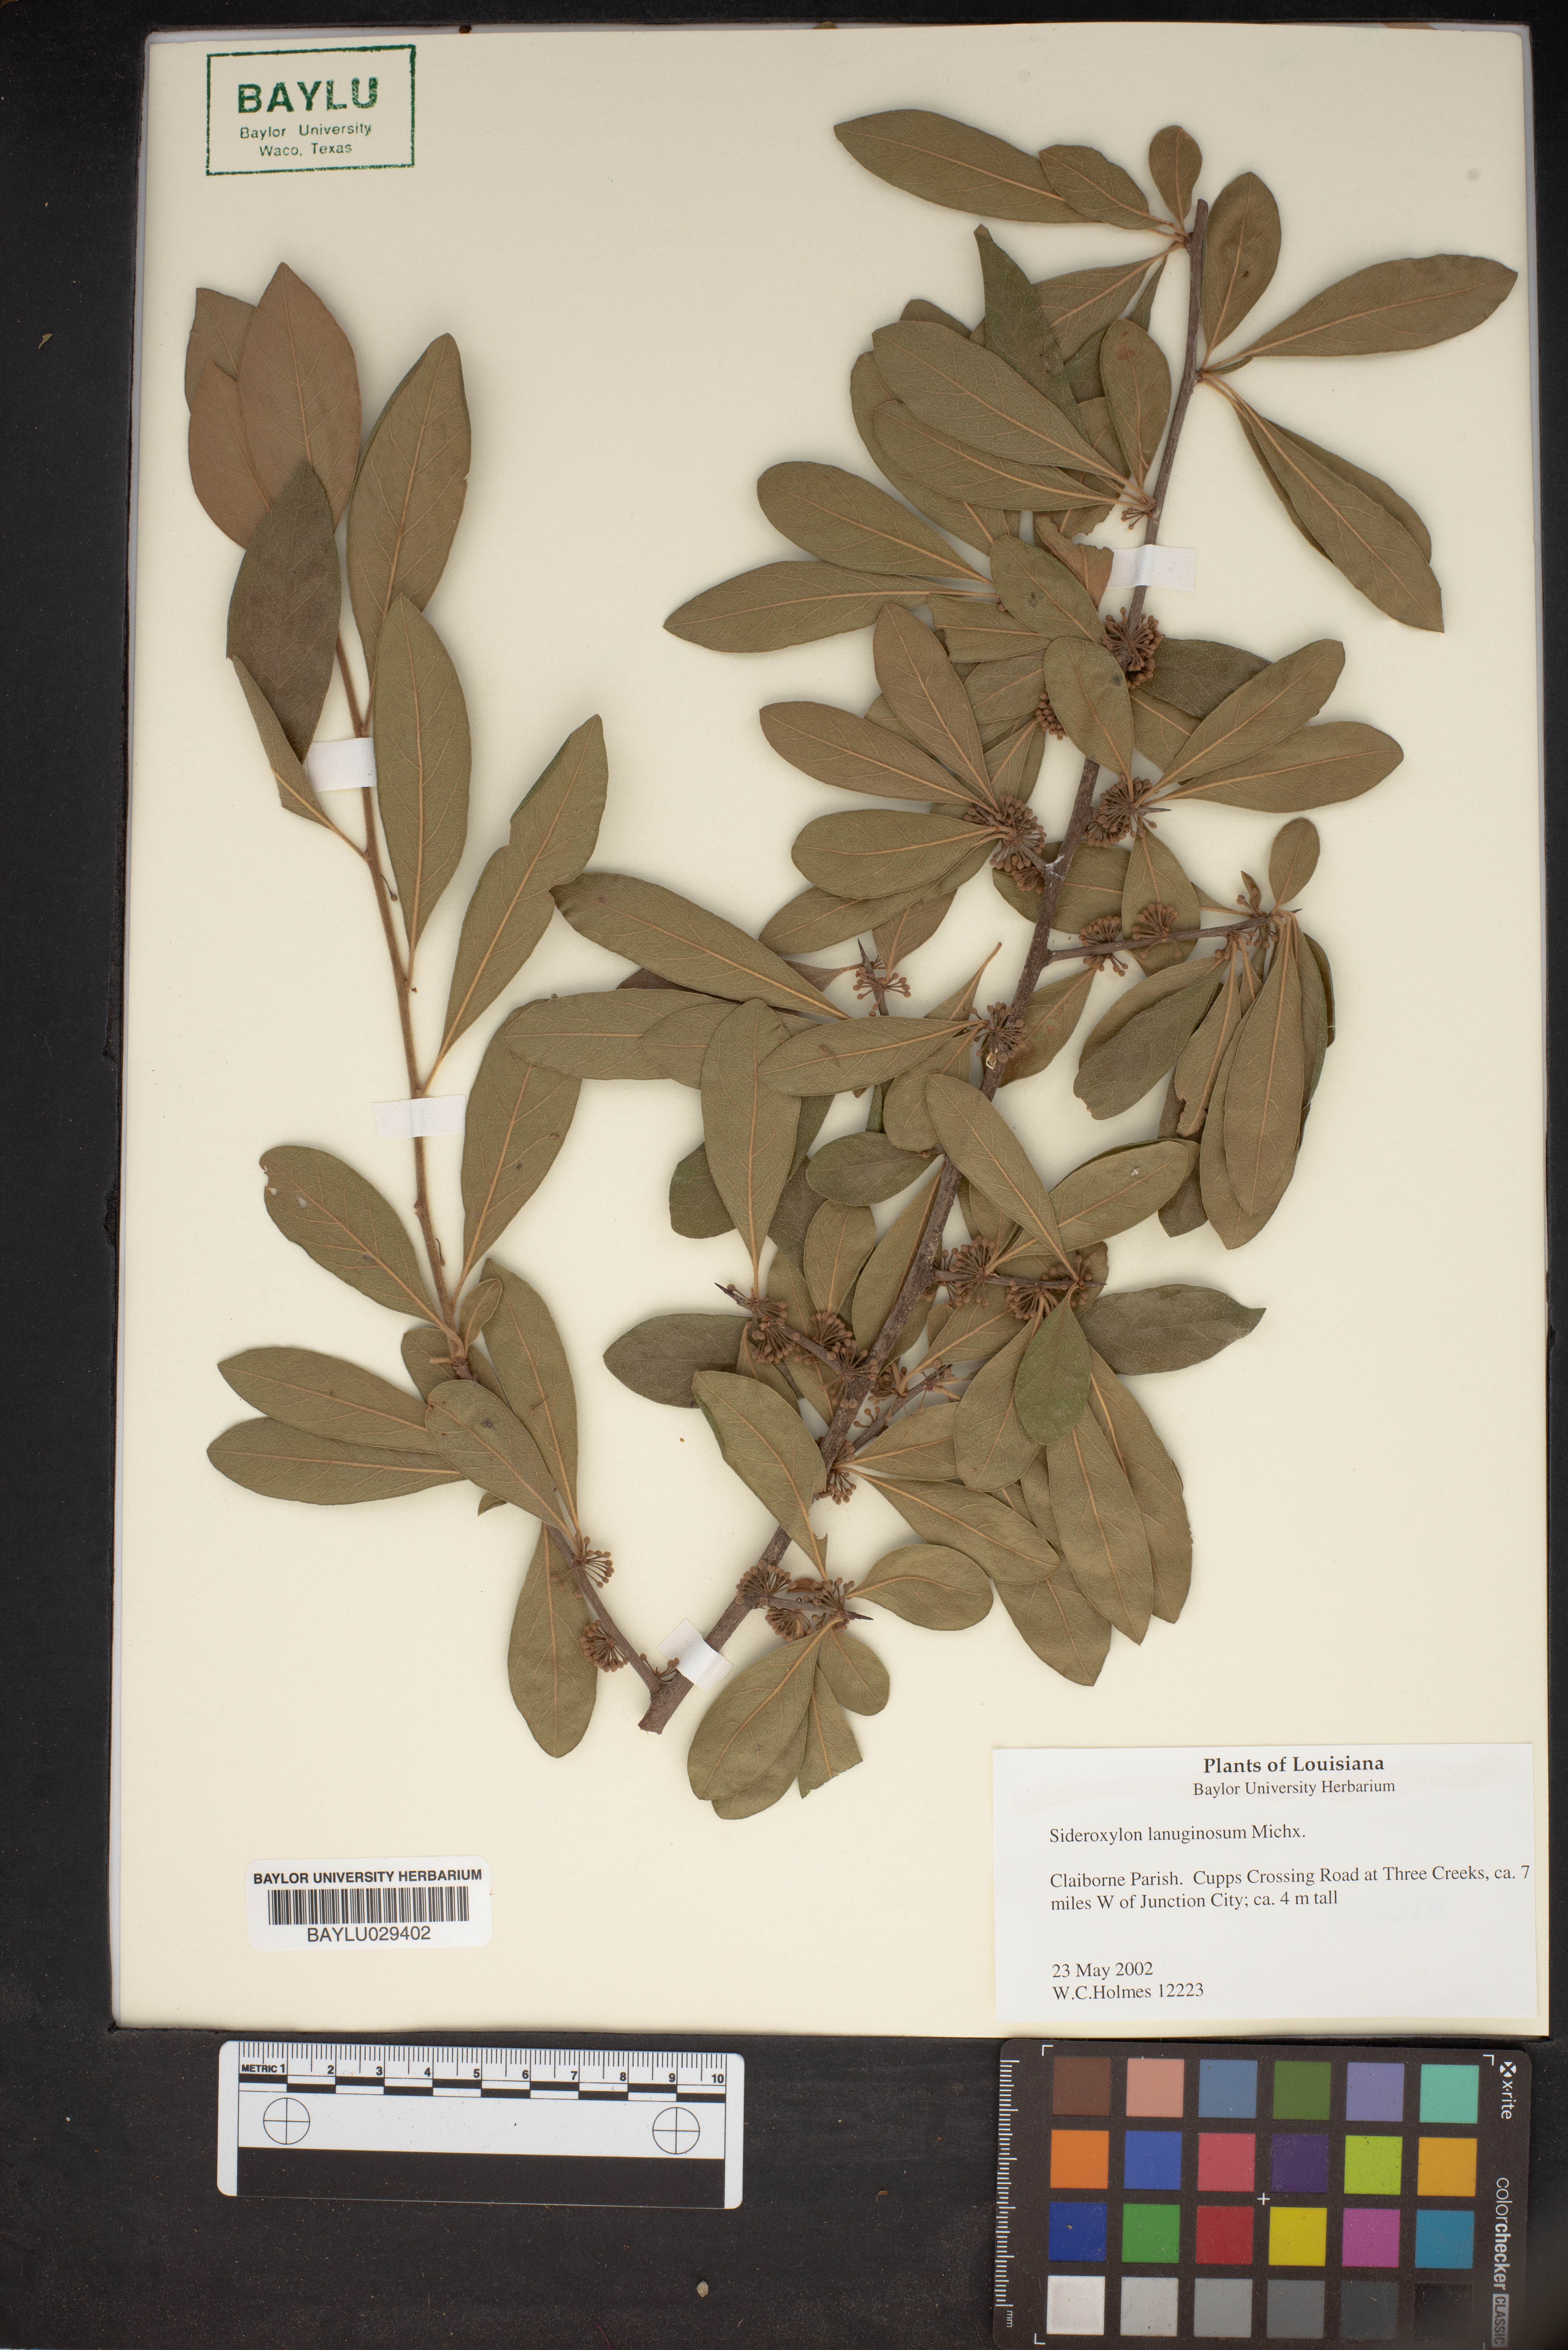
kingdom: Plantae
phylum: Tracheophyta
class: Magnoliopsida
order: Ericales
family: Sapotaceae
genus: Sideroxylon
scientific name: Sideroxylon lanuginosum
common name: Chittamwood
